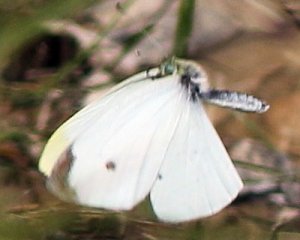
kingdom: Animalia
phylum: Arthropoda
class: Insecta
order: Lepidoptera
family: Pieridae
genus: Pieris
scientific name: Pieris rapae
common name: Cabbage White
